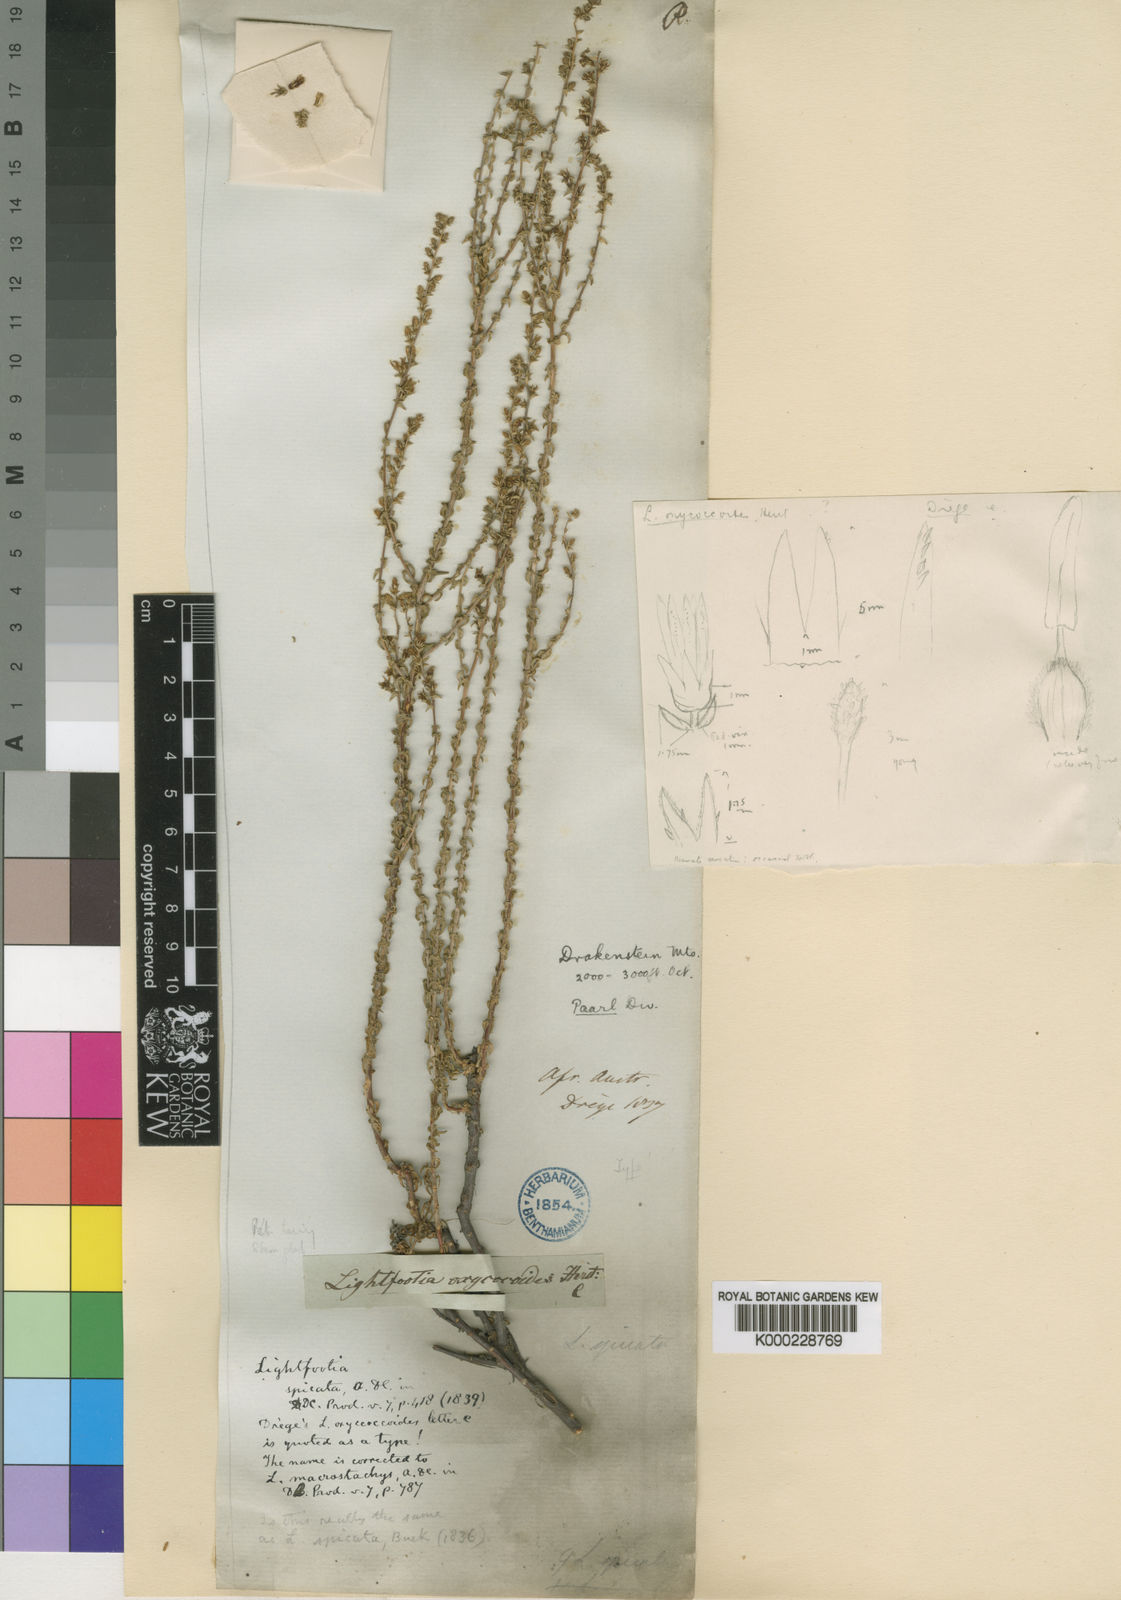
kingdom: Plantae
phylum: Tracheophyta
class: Magnoliopsida
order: Asterales
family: Campanulaceae
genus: Wahlenbergia
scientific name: Wahlenbergia macrostachys
